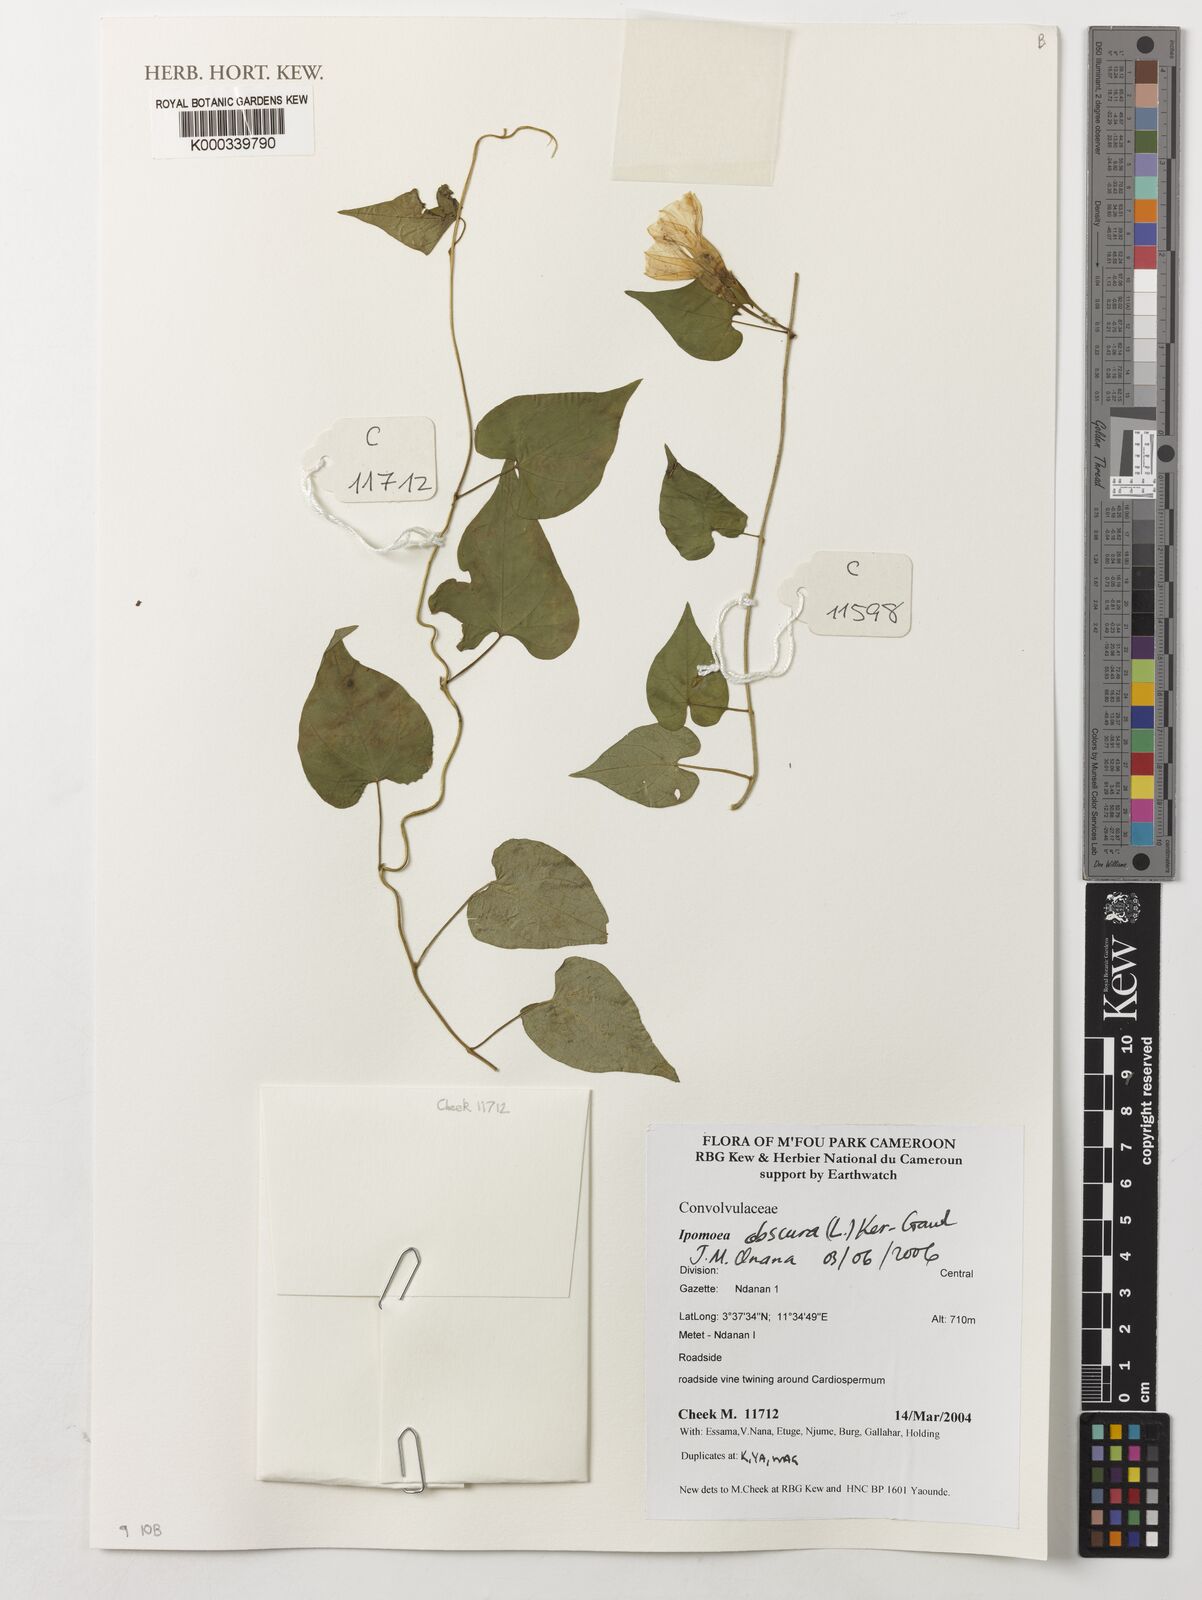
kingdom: Plantae
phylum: Tracheophyta
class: Magnoliopsida
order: Solanales
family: Convolvulaceae
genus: Ipomoea
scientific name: Ipomoea obscura
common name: Obscure morning-glory
